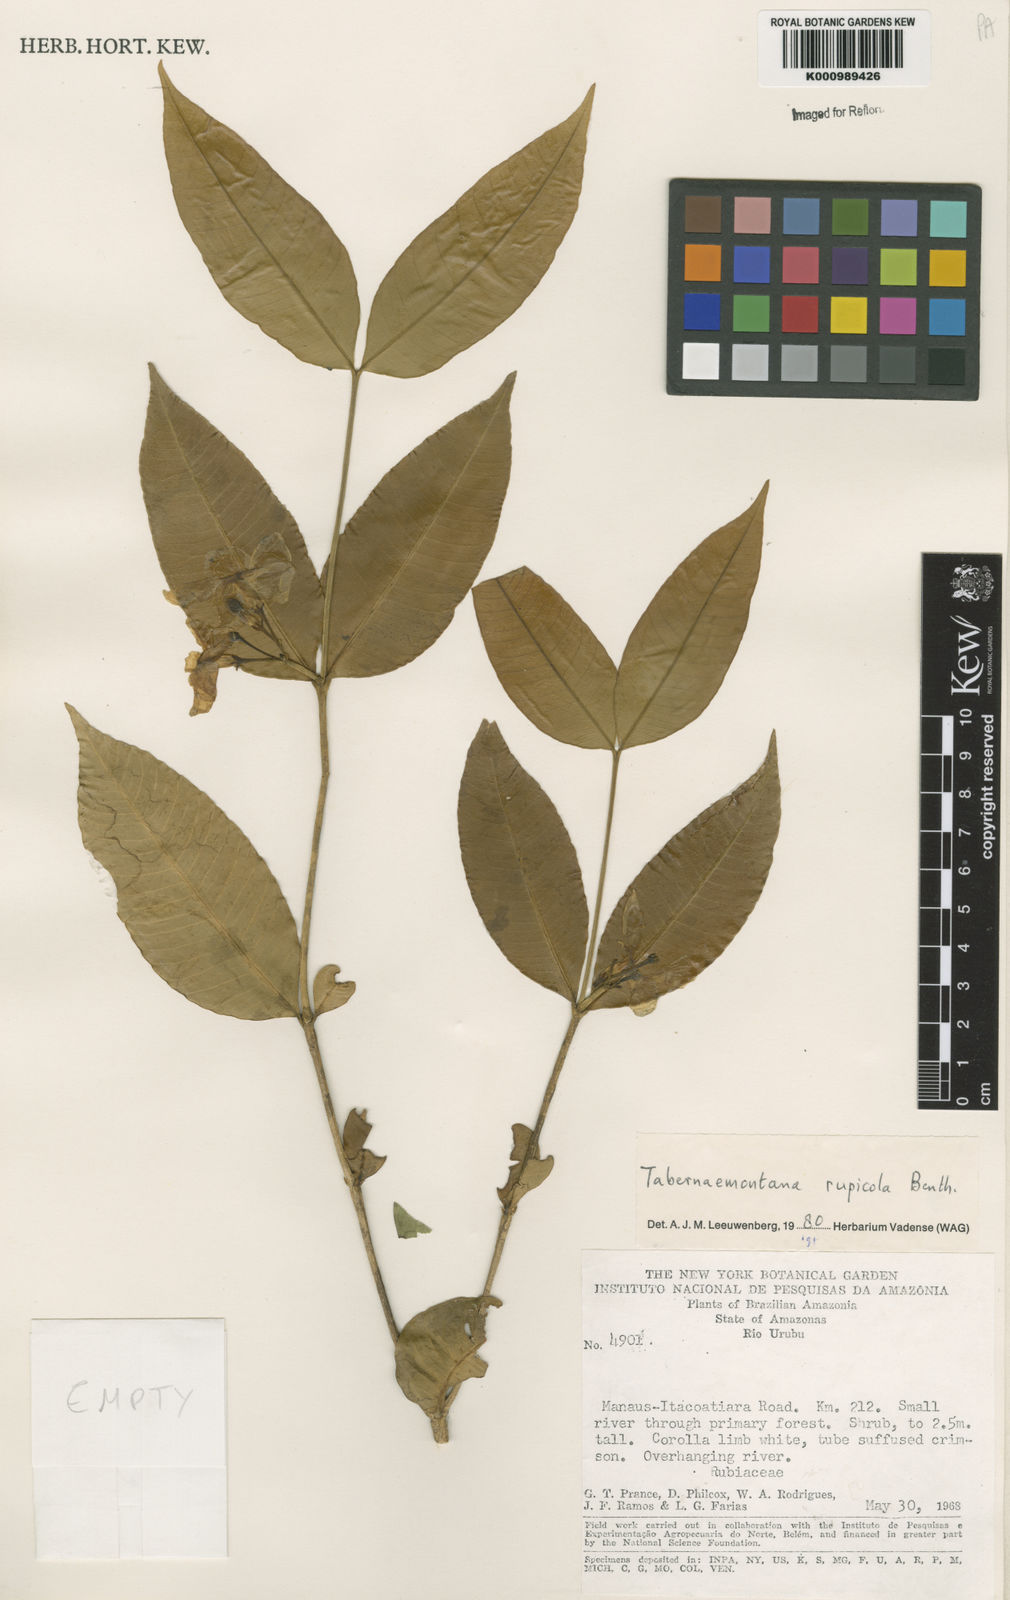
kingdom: Plantae
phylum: Tracheophyta
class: Magnoliopsida
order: Gentianales
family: Apocynaceae
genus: Tabernaemontana
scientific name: Tabernaemontana rupicola
